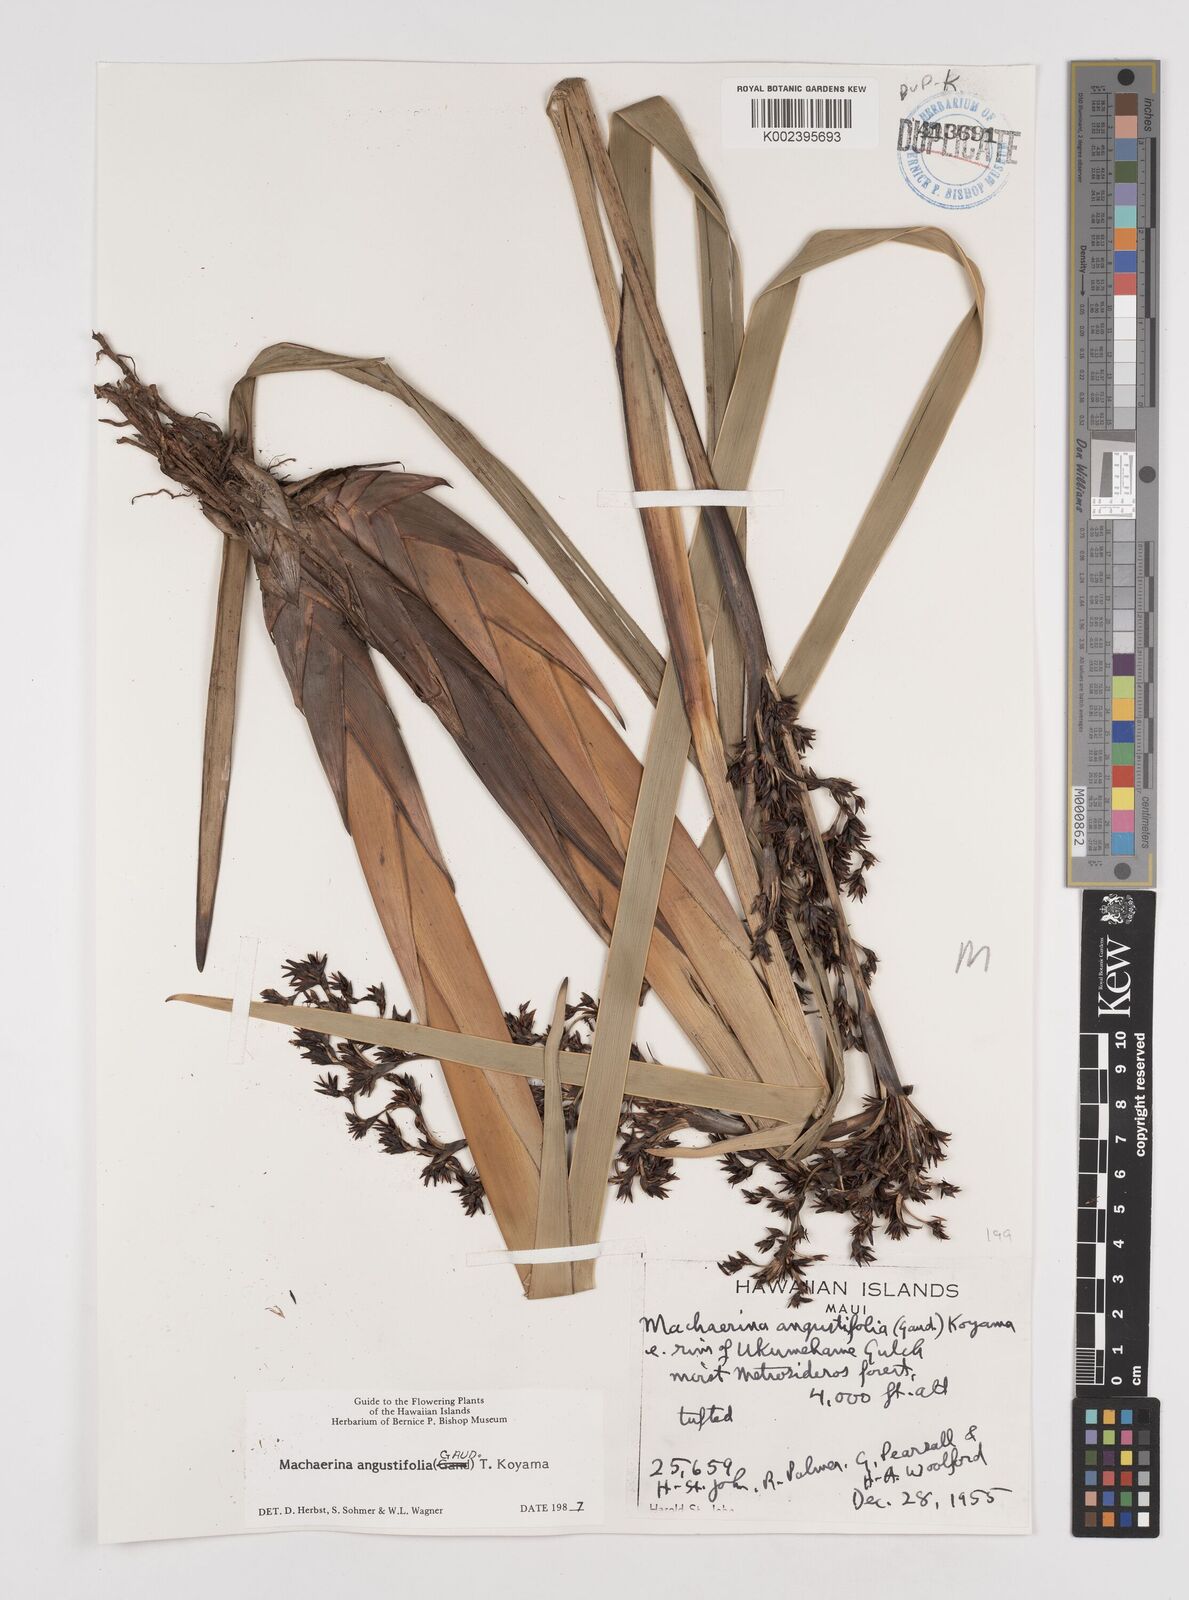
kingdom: Plantae
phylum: Tracheophyta
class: Liliopsida
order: Poales
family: Cyperaceae
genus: Machaerina
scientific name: Machaerina angustifolia
